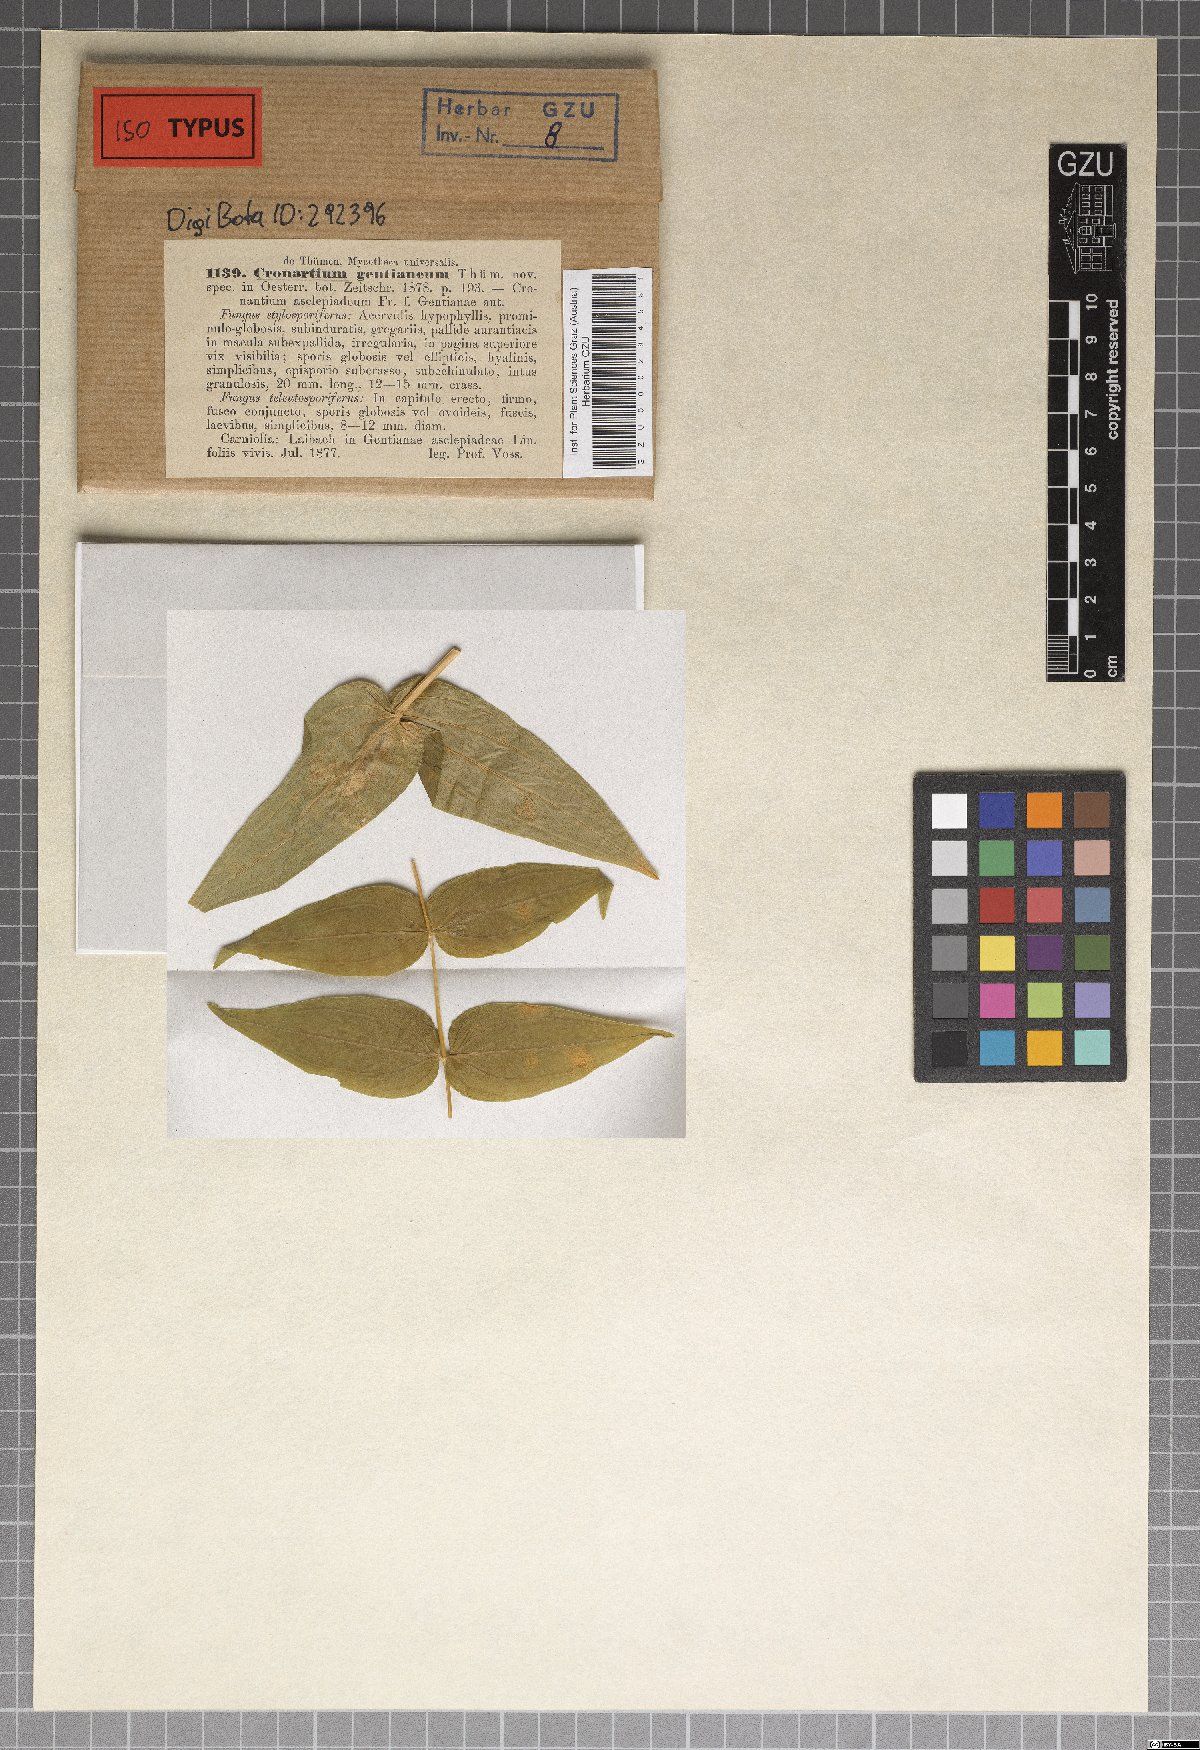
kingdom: Fungi
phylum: Basidiomycota
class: Pucciniomycetes
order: Pucciniales
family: Cronartiaceae
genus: Cronartium
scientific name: Cronartium
